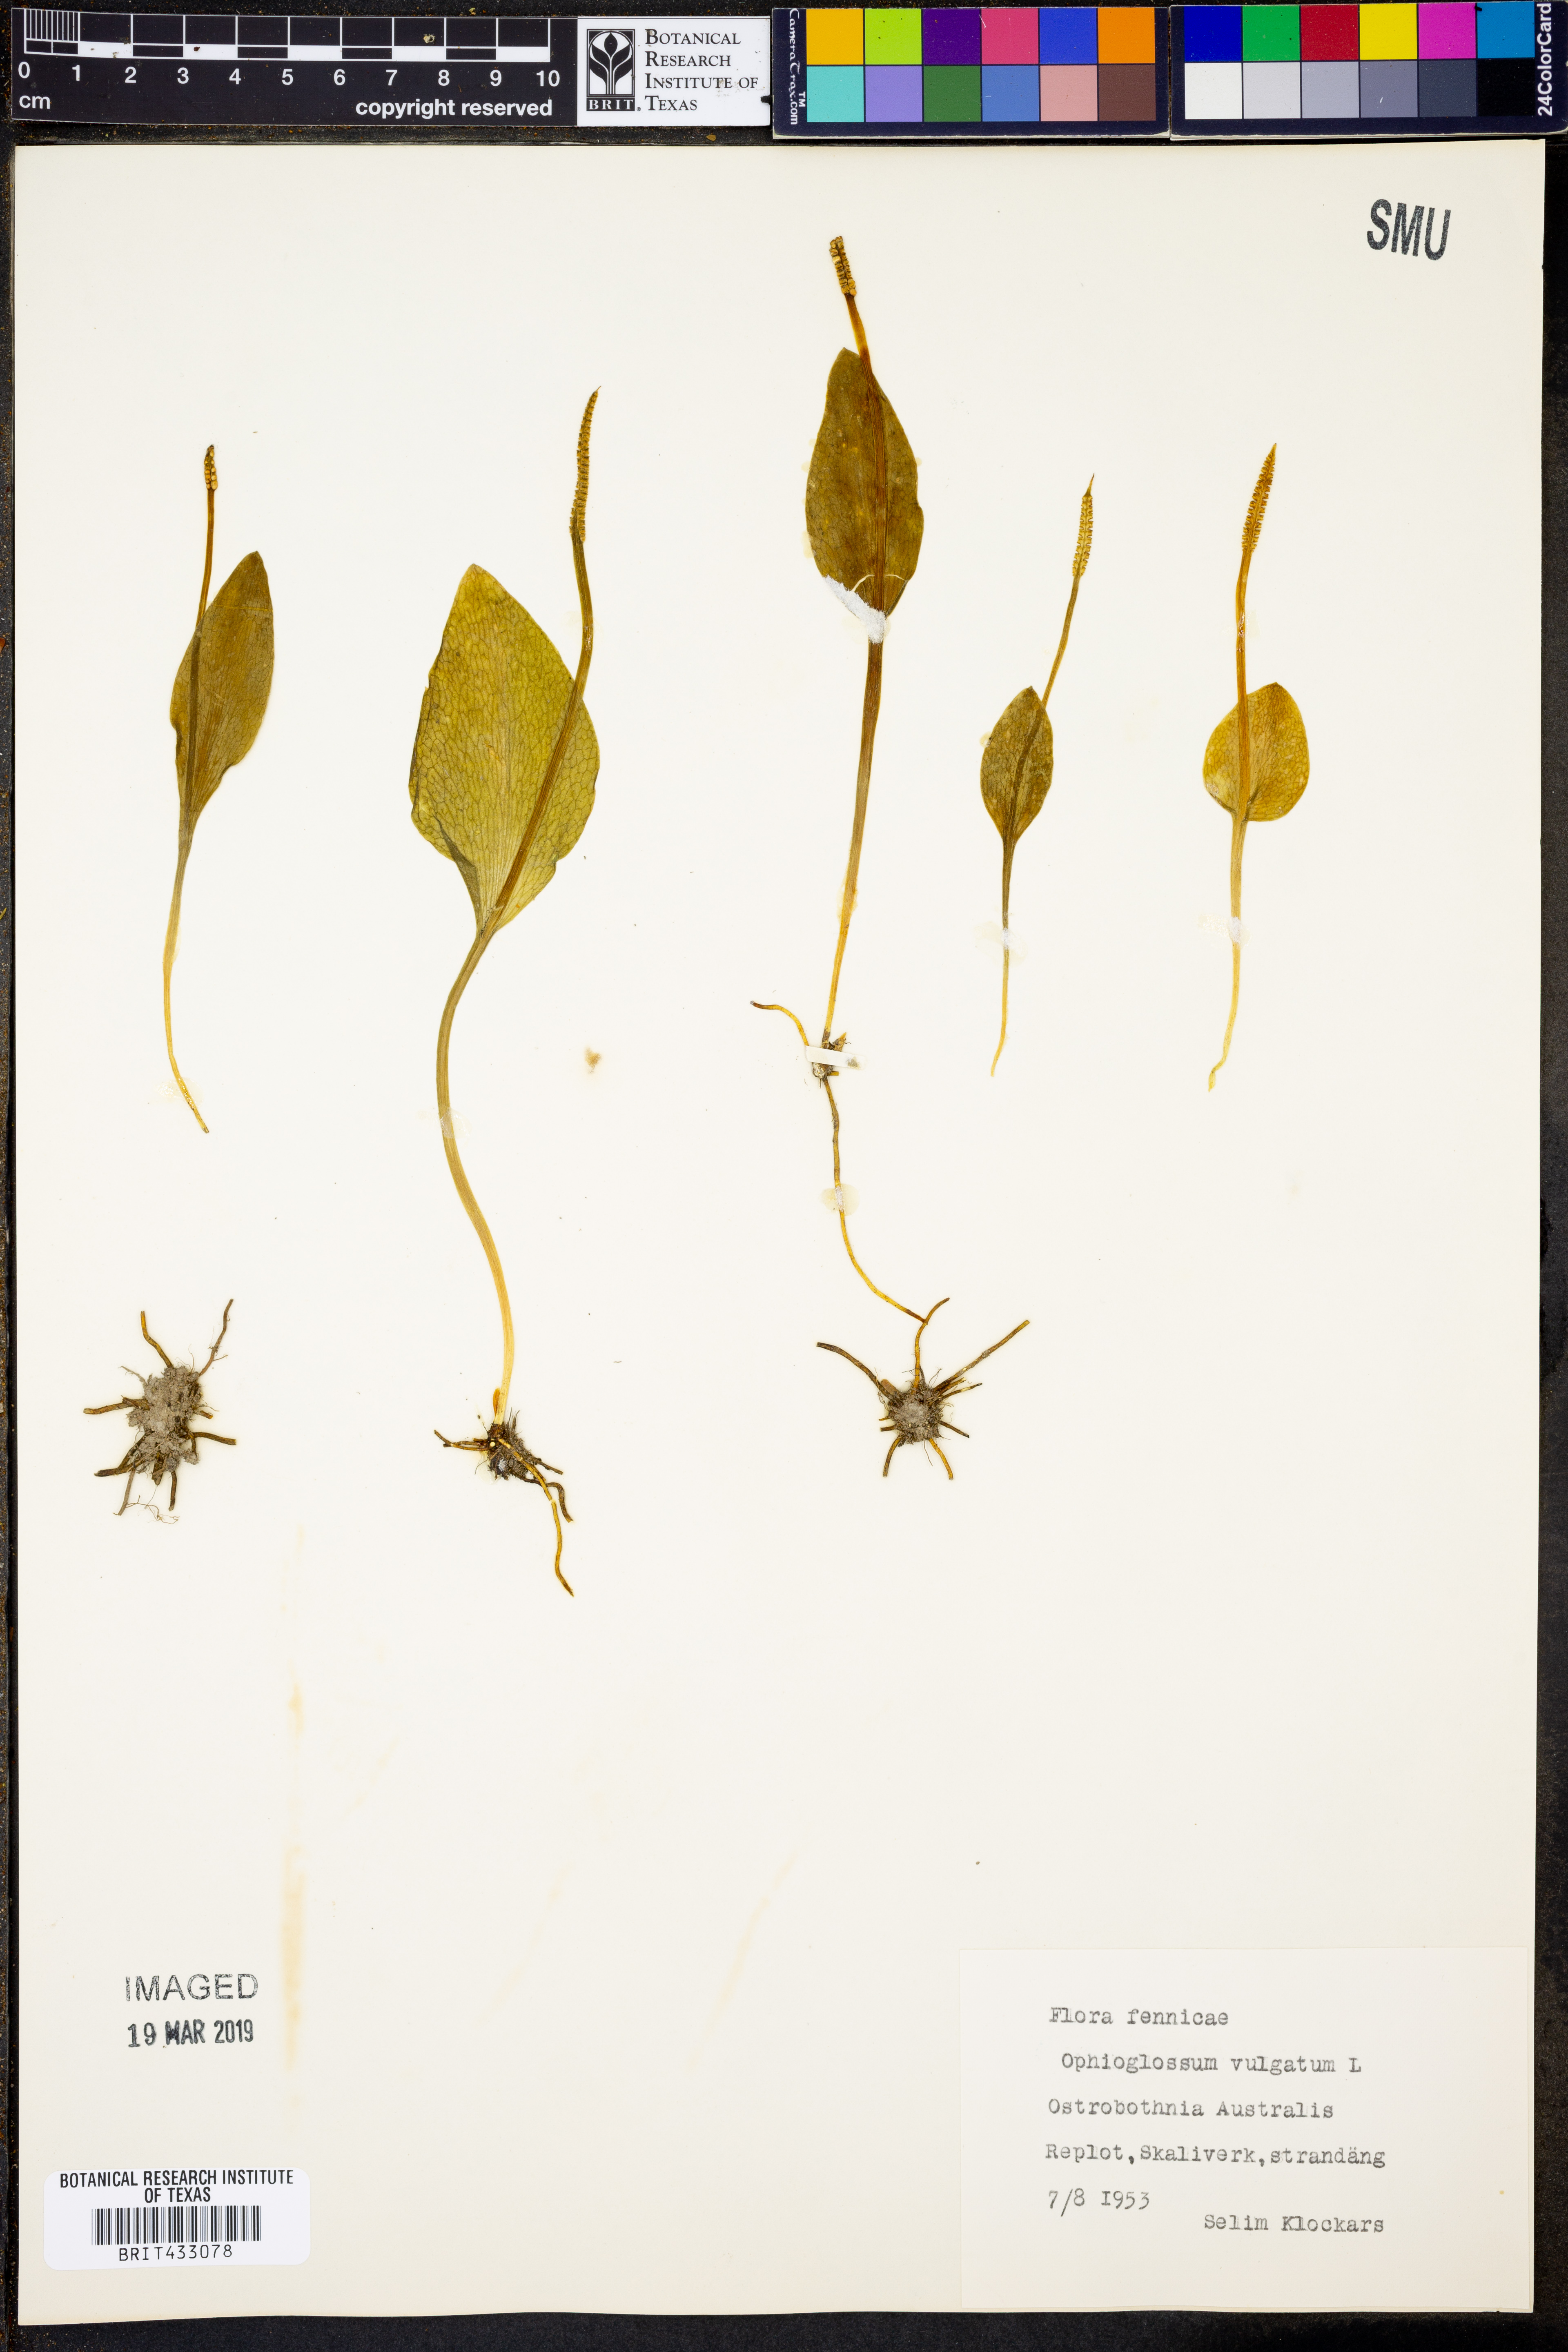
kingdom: Plantae
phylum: Tracheophyta
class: Polypodiopsida
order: Ophioglossales
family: Ophioglossaceae
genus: Ophioglossum
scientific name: Ophioglossum vulgatum
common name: Adder's-tongue
